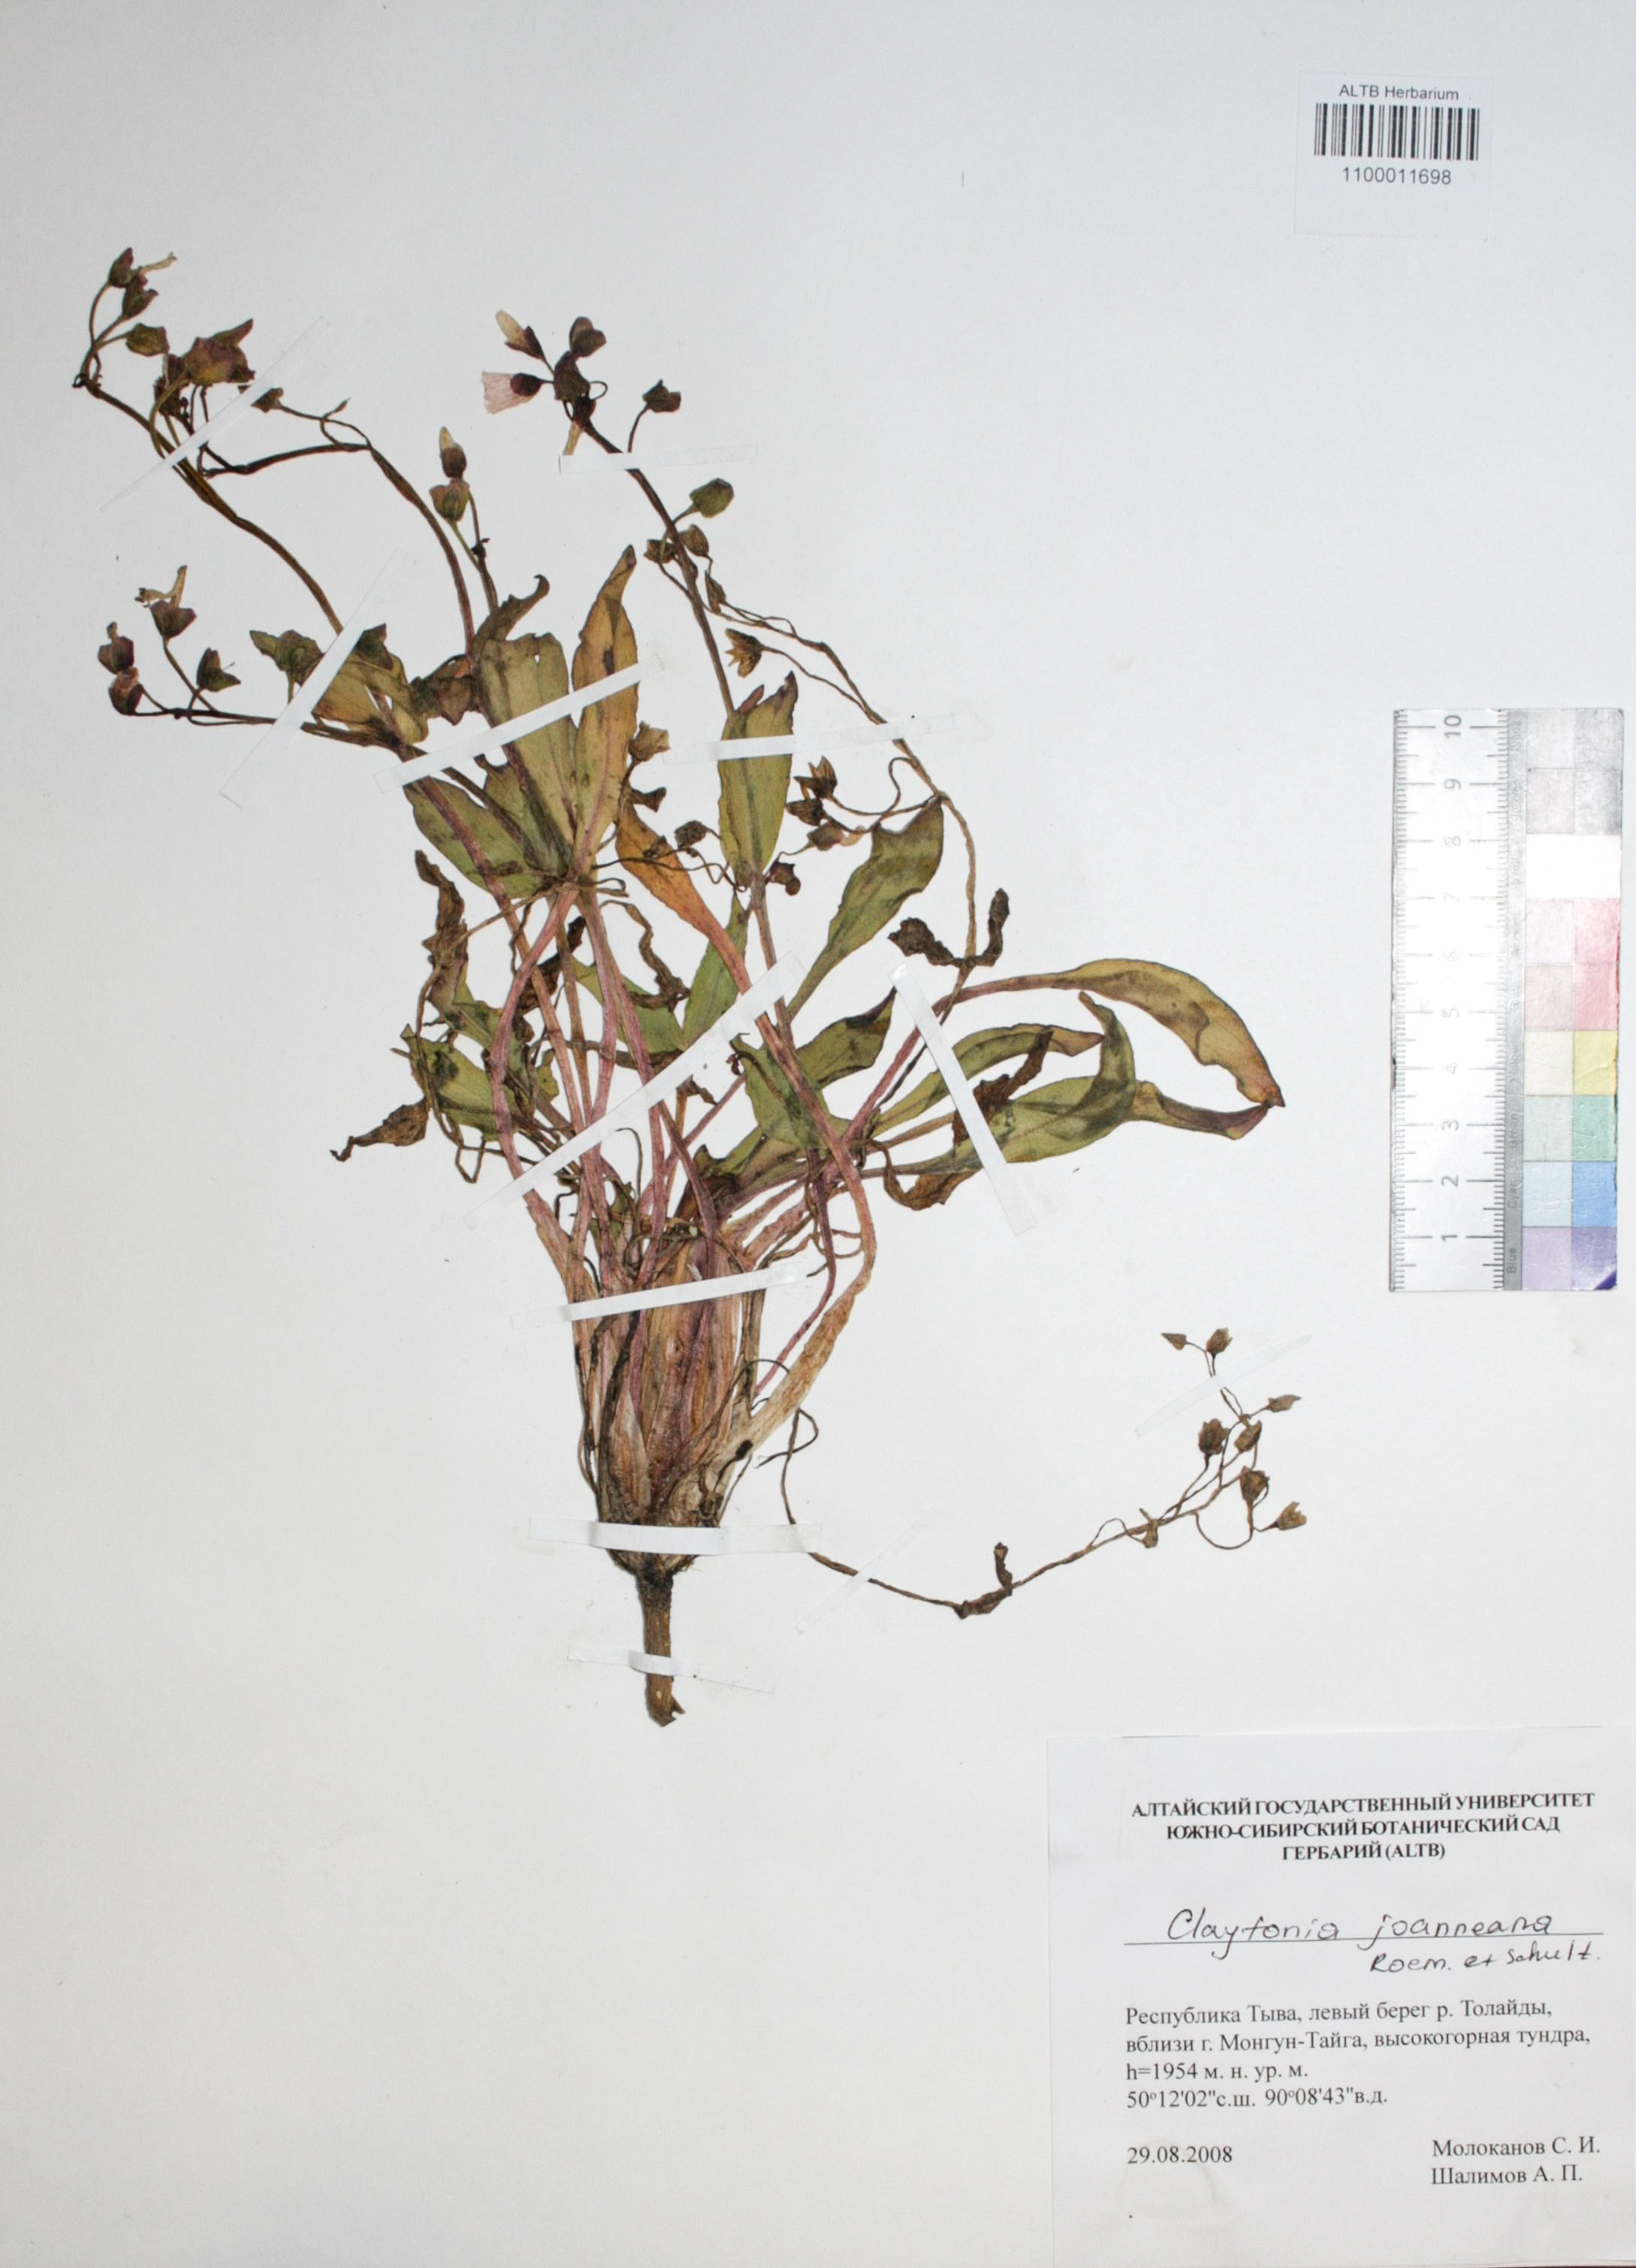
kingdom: Plantae
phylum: Tracheophyta
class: Magnoliopsida
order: Caryophyllales
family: Montiaceae
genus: Claytonia
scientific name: Claytonia joanneana
